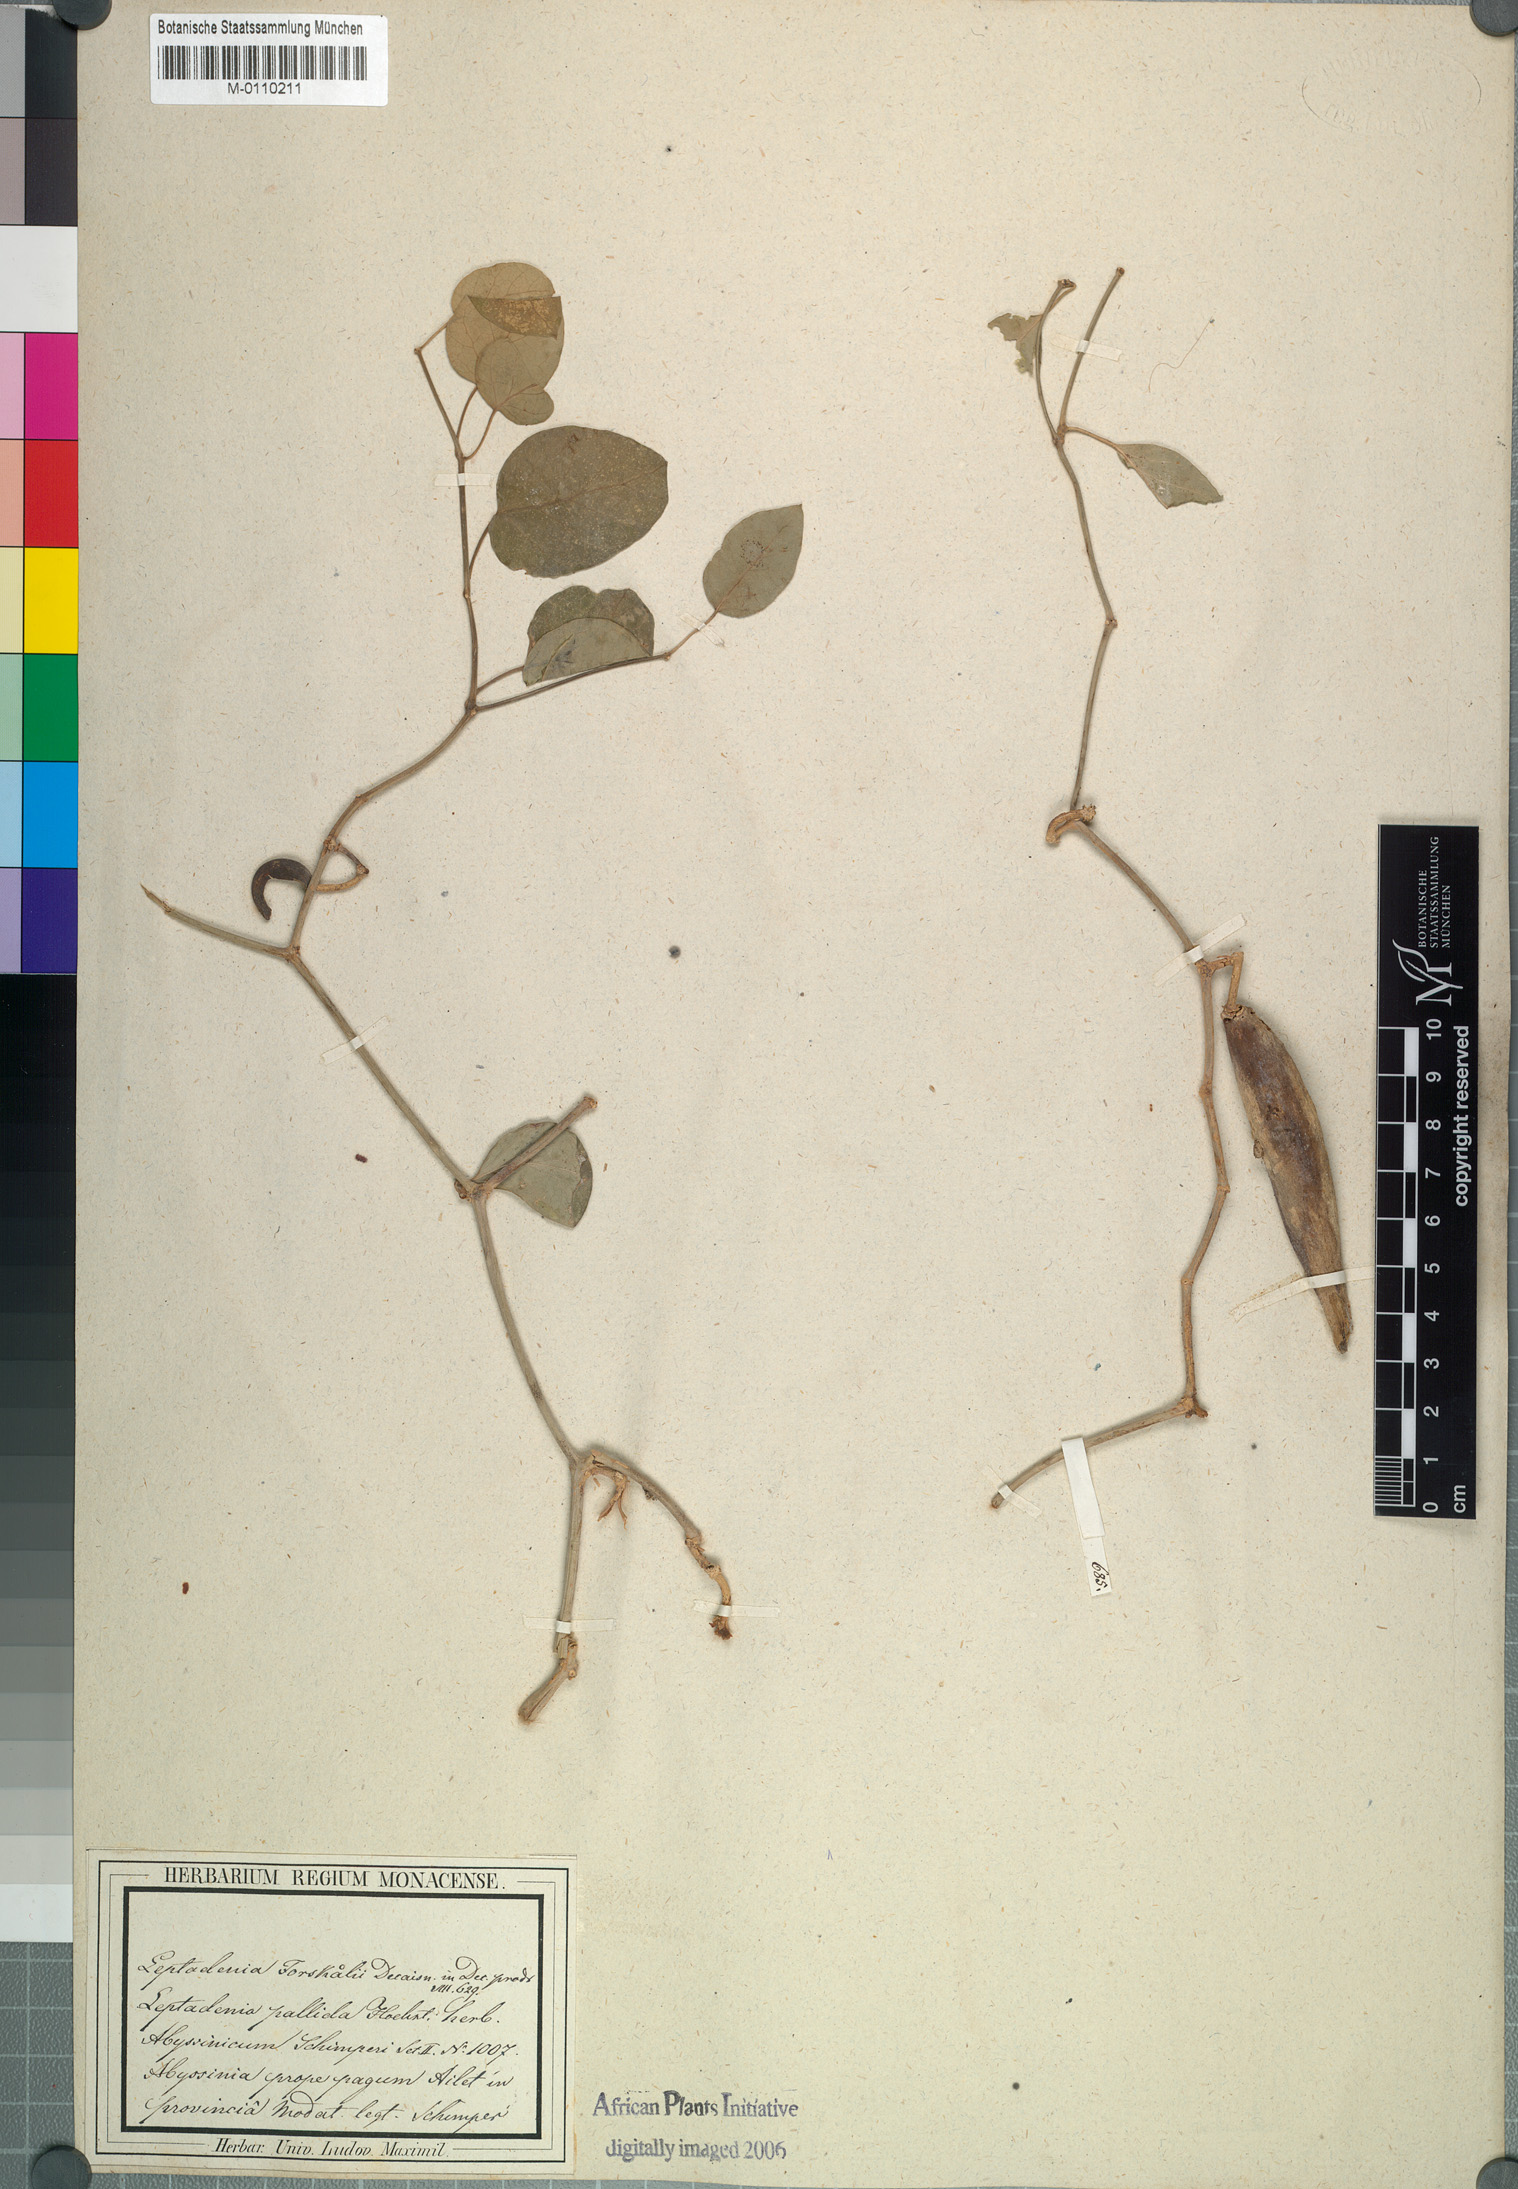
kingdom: Plantae
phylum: Tracheophyta
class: Magnoliopsida
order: Gentianales
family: Apocynaceae
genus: Leptadenia
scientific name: Leptadenia forsskalii
